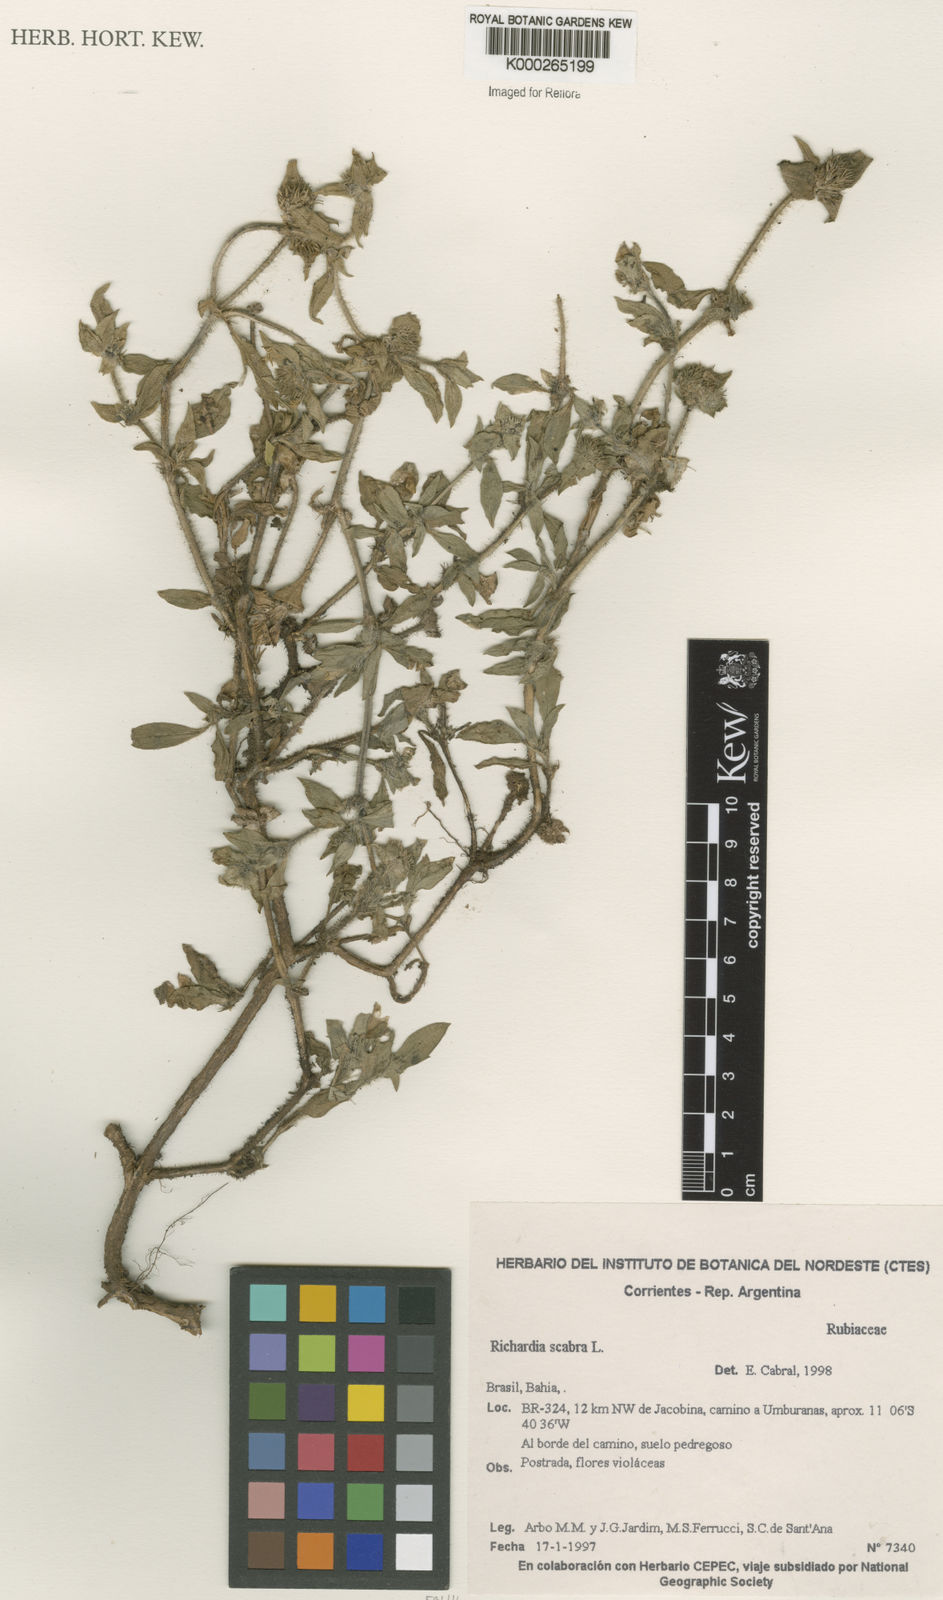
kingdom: Plantae
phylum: Tracheophyta
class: Magnoliopsida
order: Gentianales
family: Rubiaceae
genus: Richardia
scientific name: Richardia scabra
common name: Rough mexican clover
